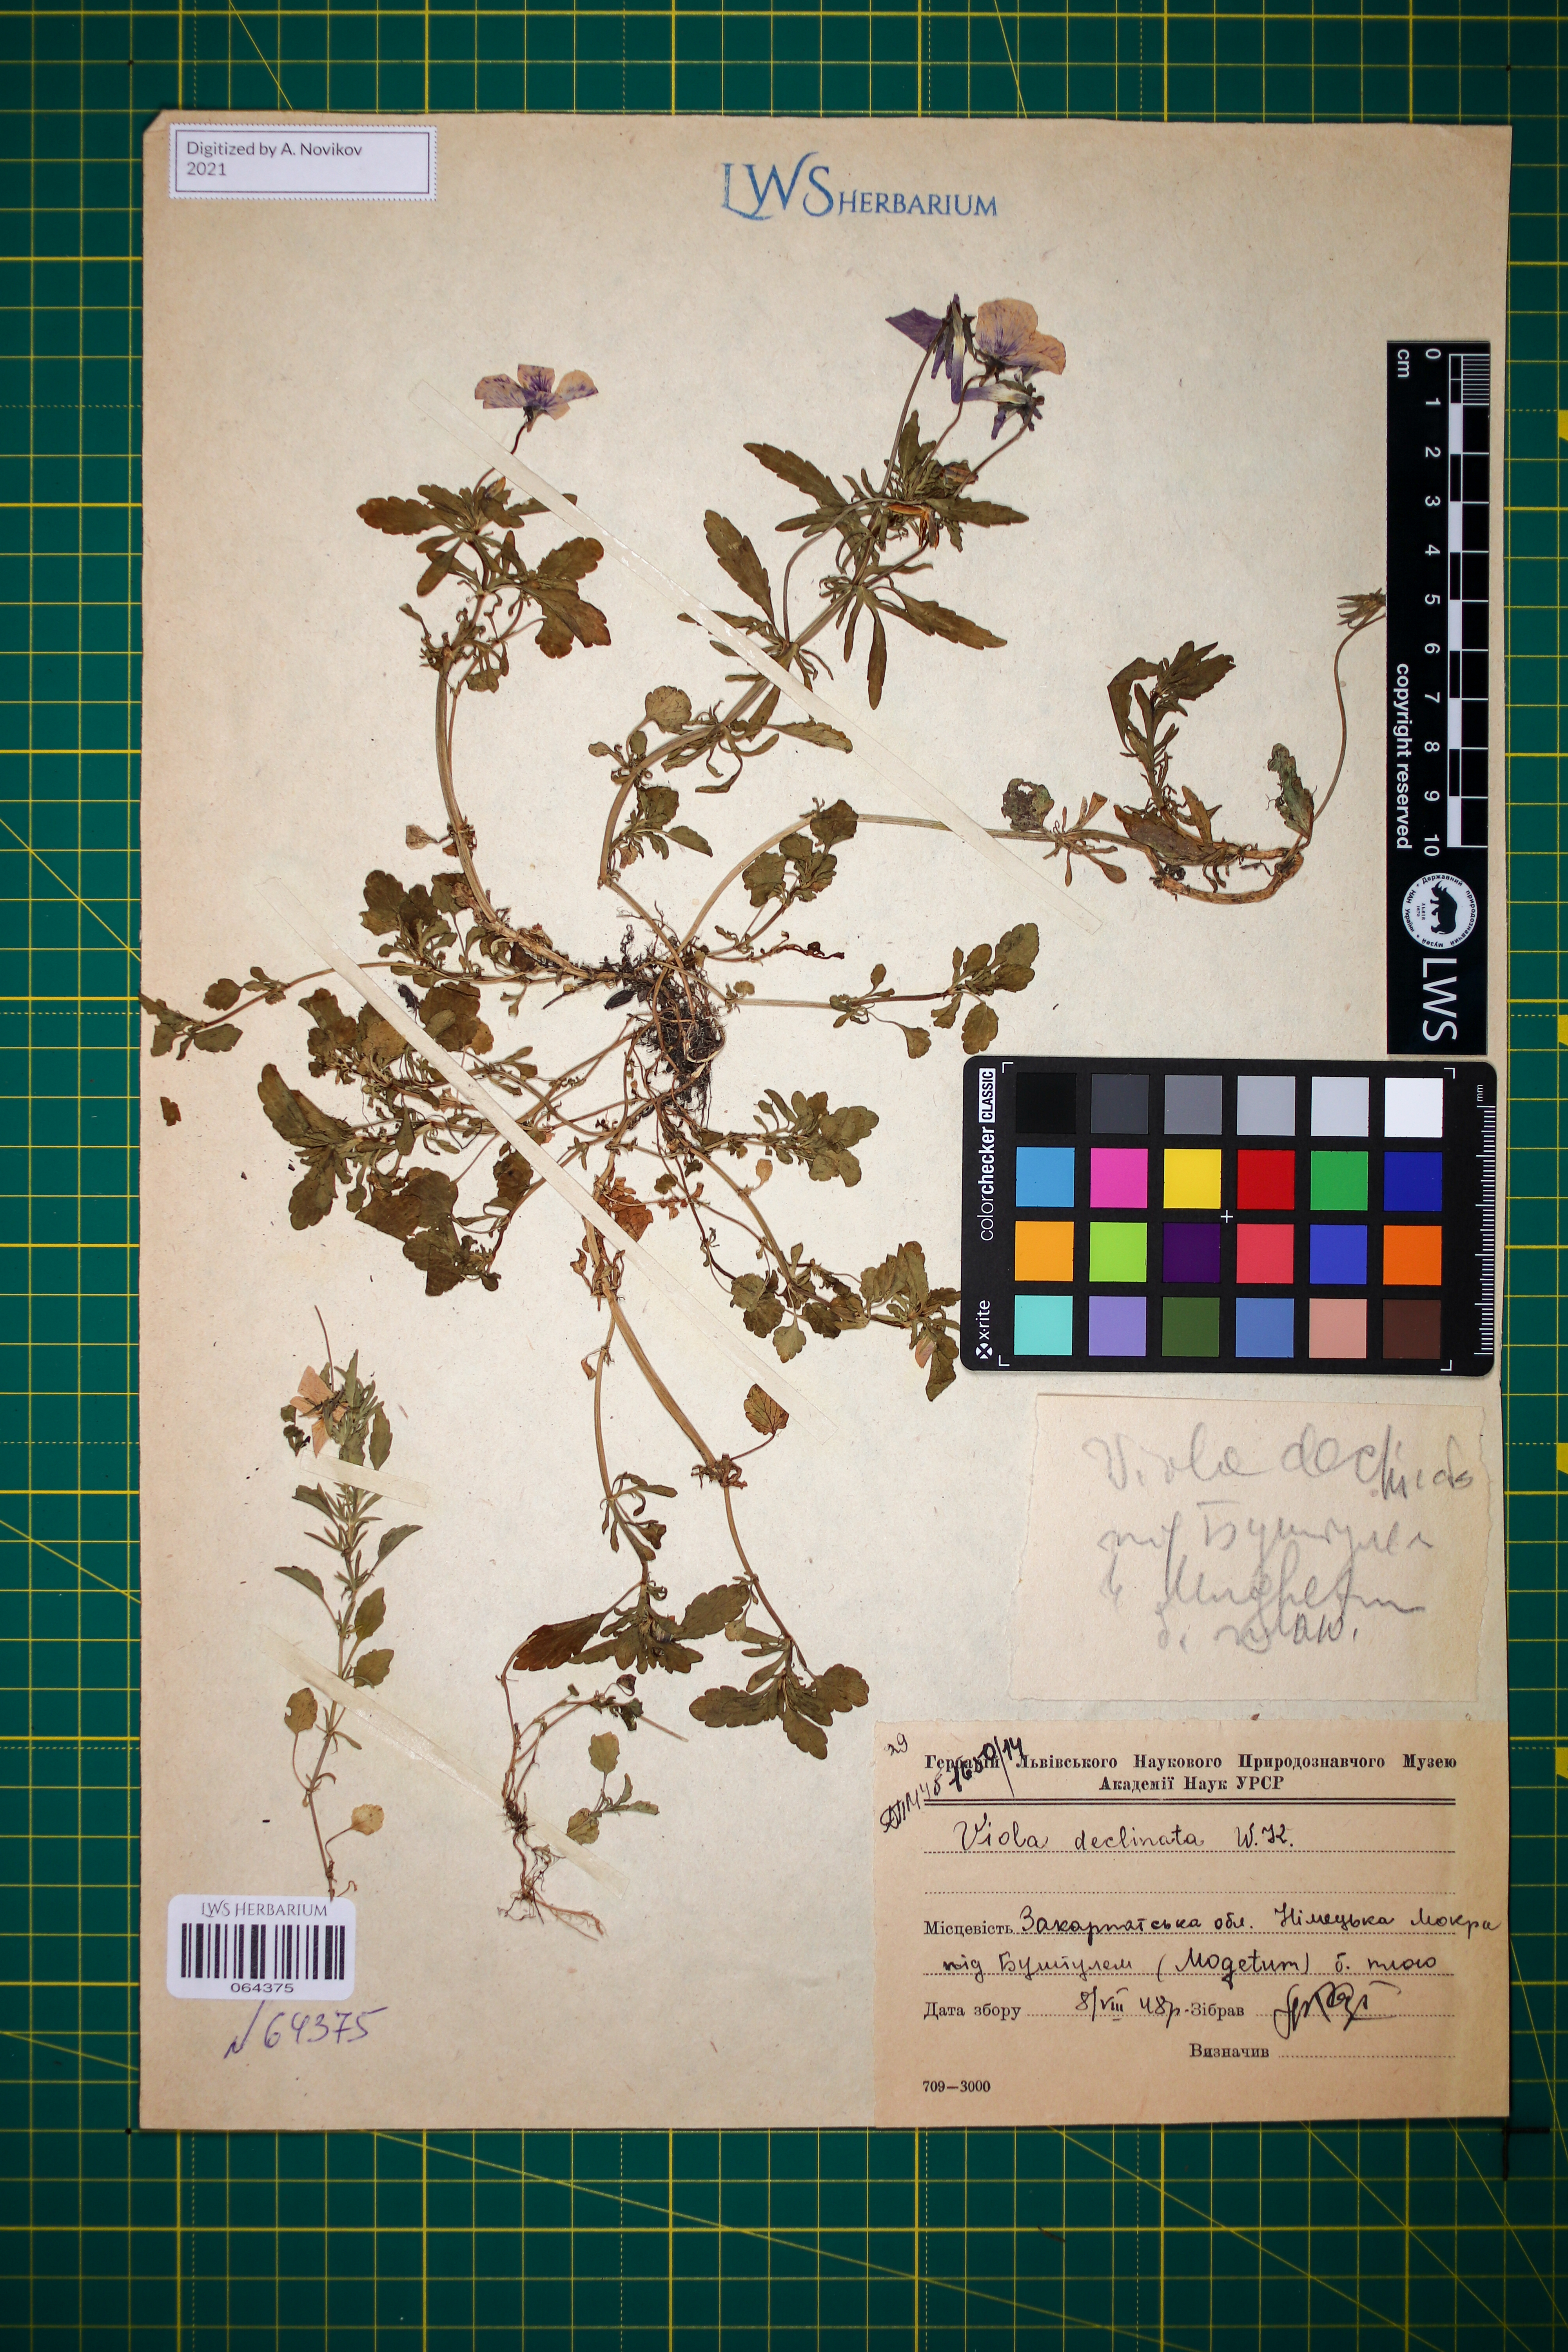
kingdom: Plantae
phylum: Tracheophyta
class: Magnoliopsida
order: Malpighiales
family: Violaceae
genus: Viola
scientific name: Viola declinata
